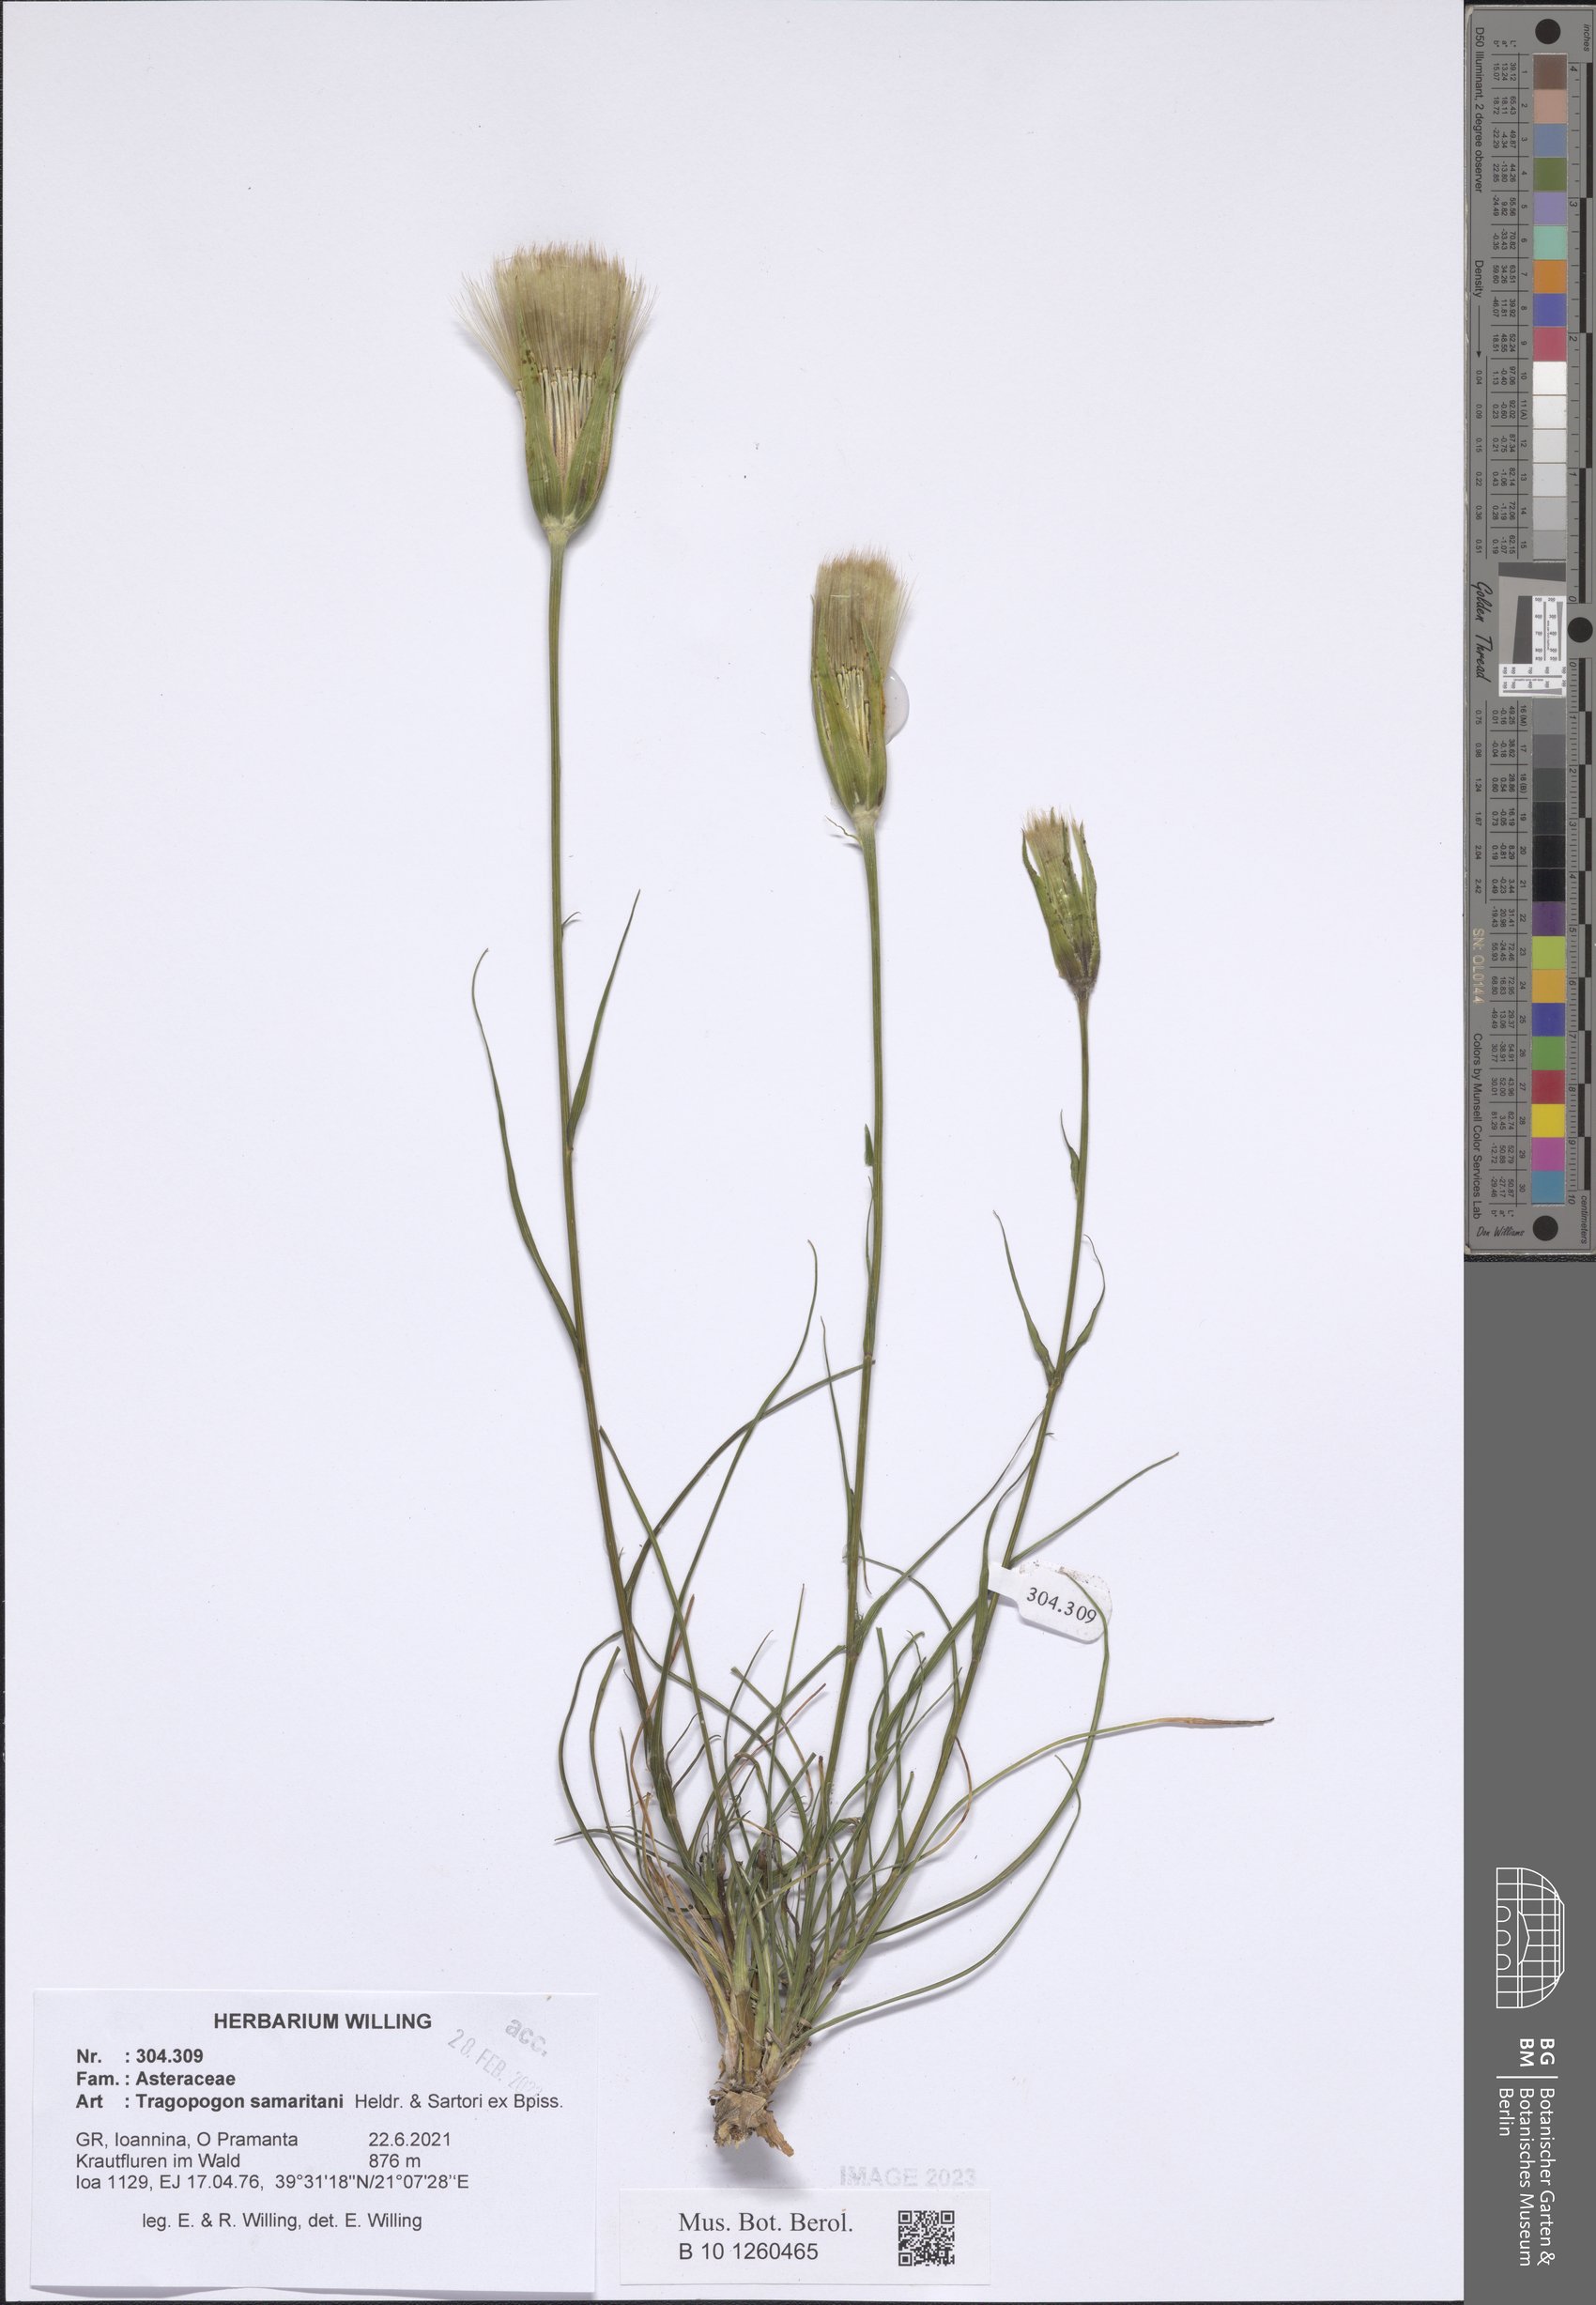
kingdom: Plantae
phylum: Tracheophyta
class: Magnoliopsida
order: Asterales
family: Asteraceae
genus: Tragopogon
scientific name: Tragopogon samaritani
